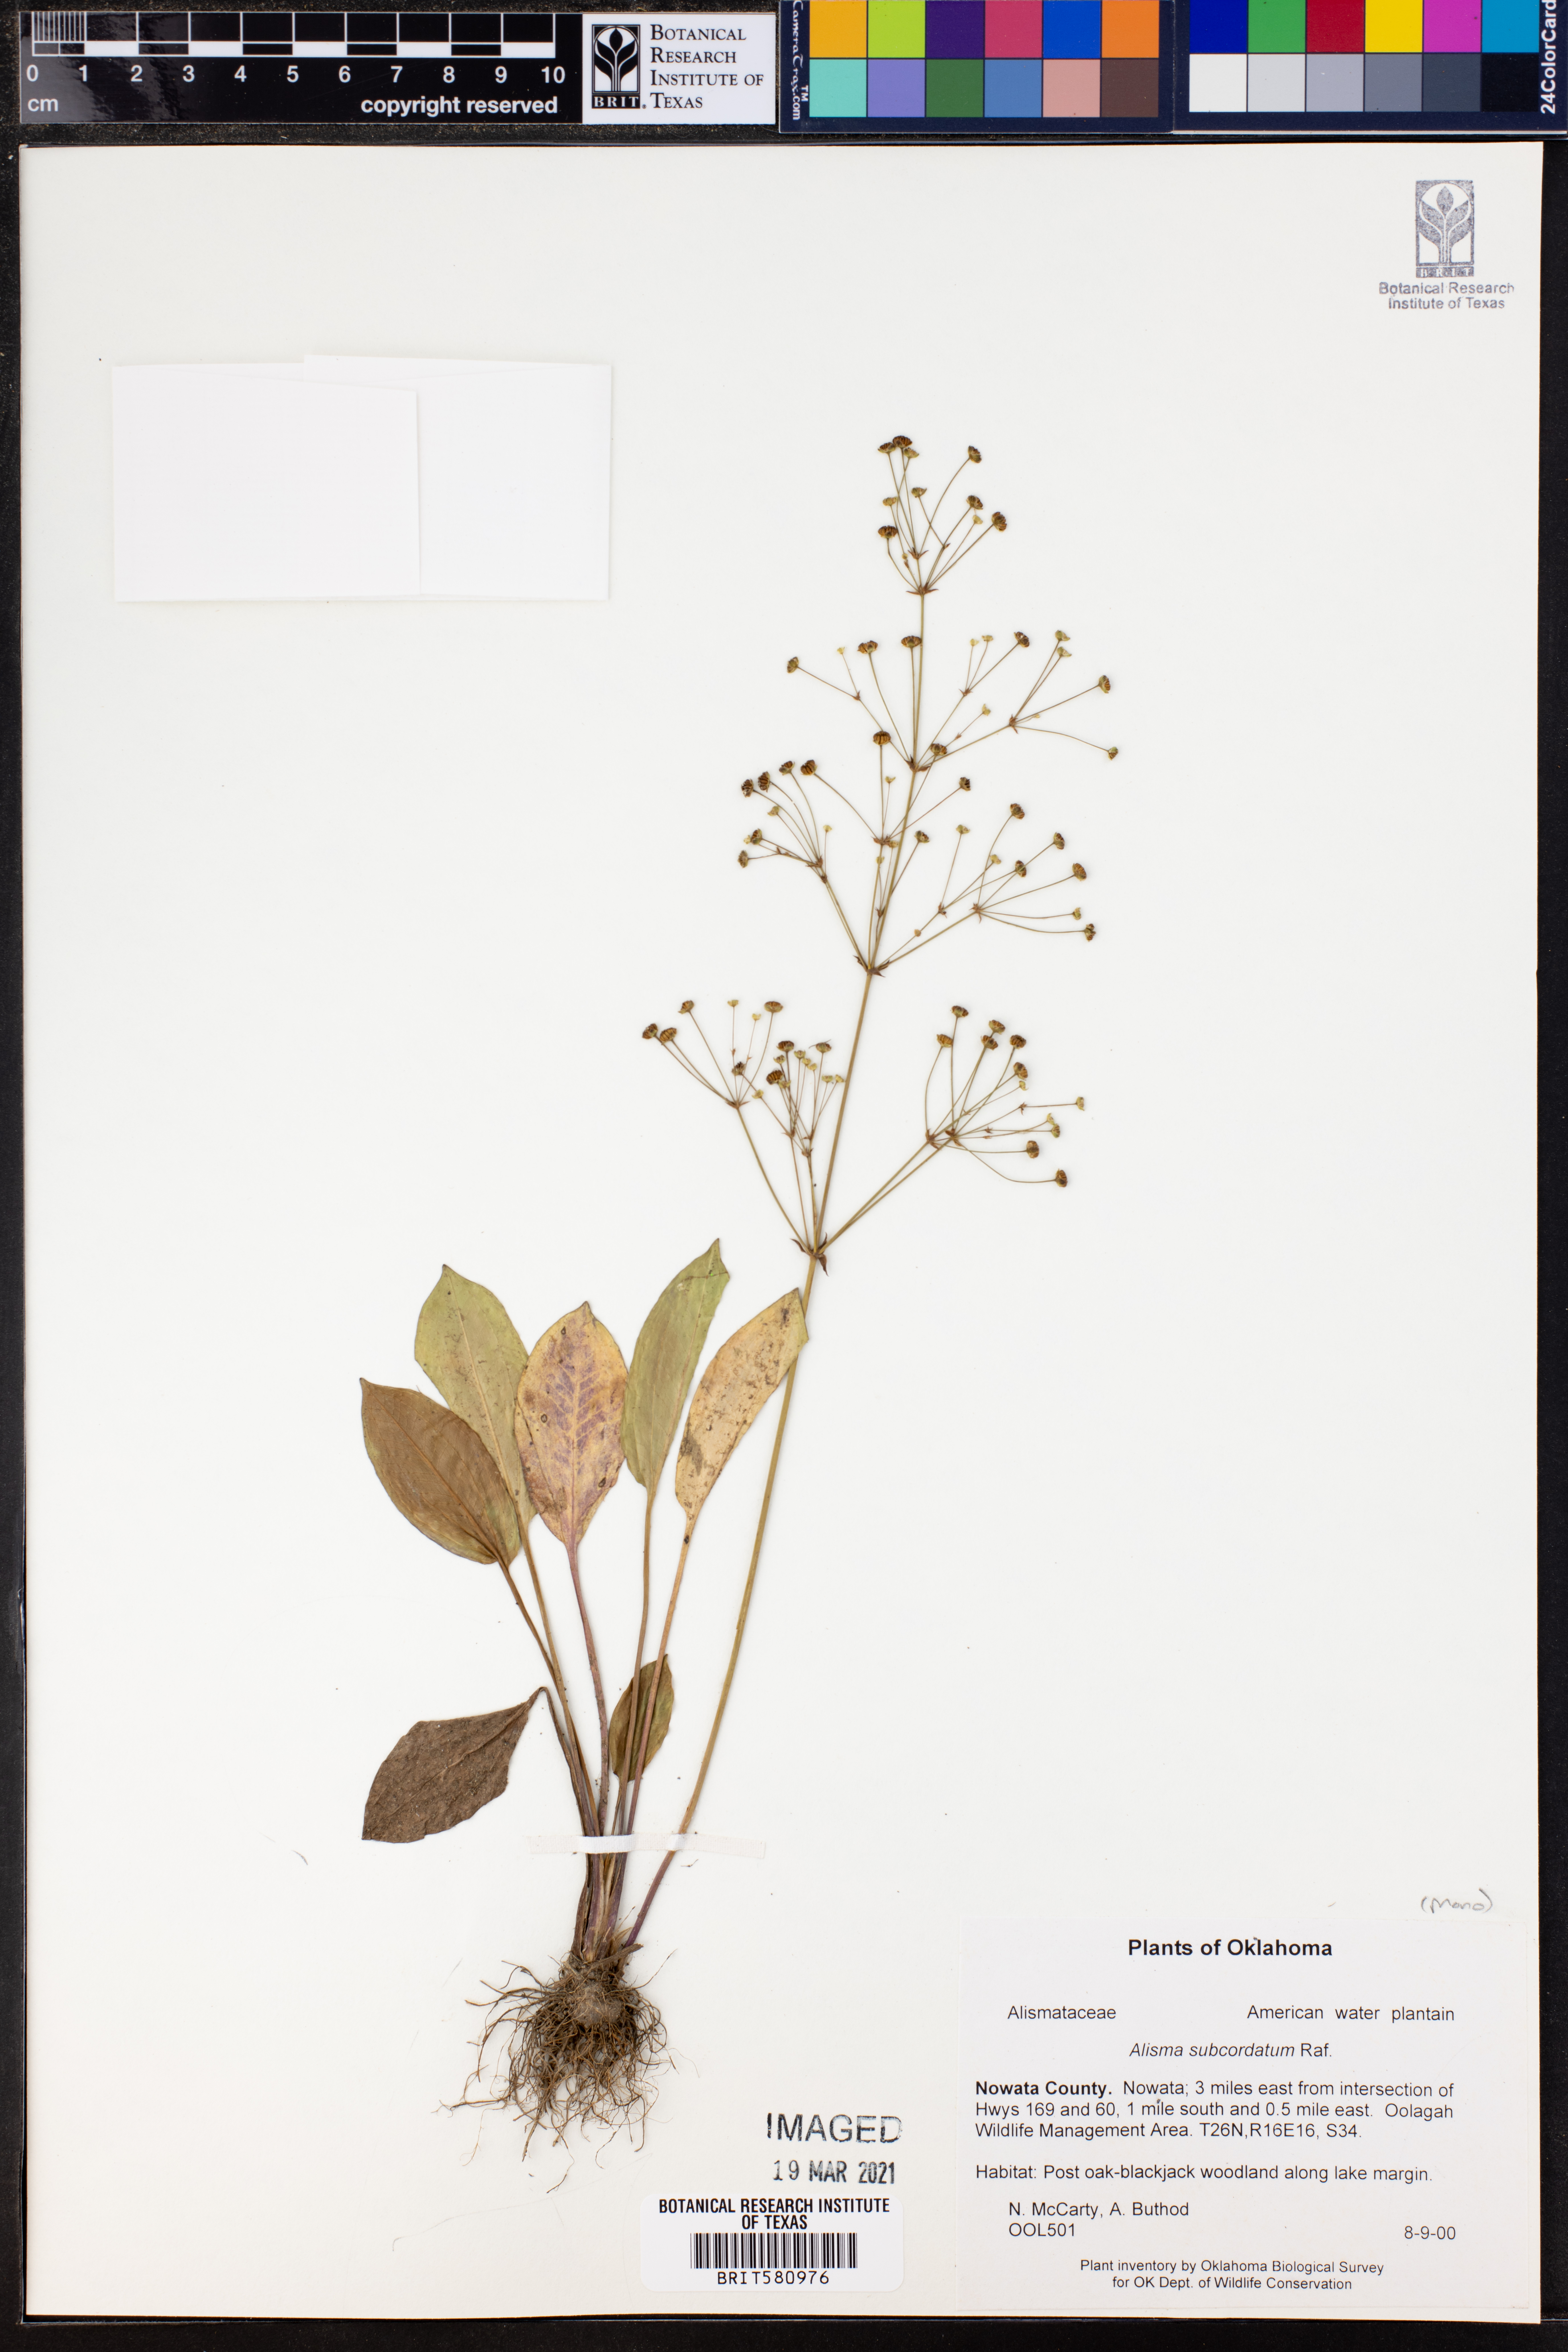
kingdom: Plantae
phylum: Tracheophyta
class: Liliopsida
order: Alismatales
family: Alismataceae
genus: Alisma
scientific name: Alisma subcordatum
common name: Southern water-plantain
